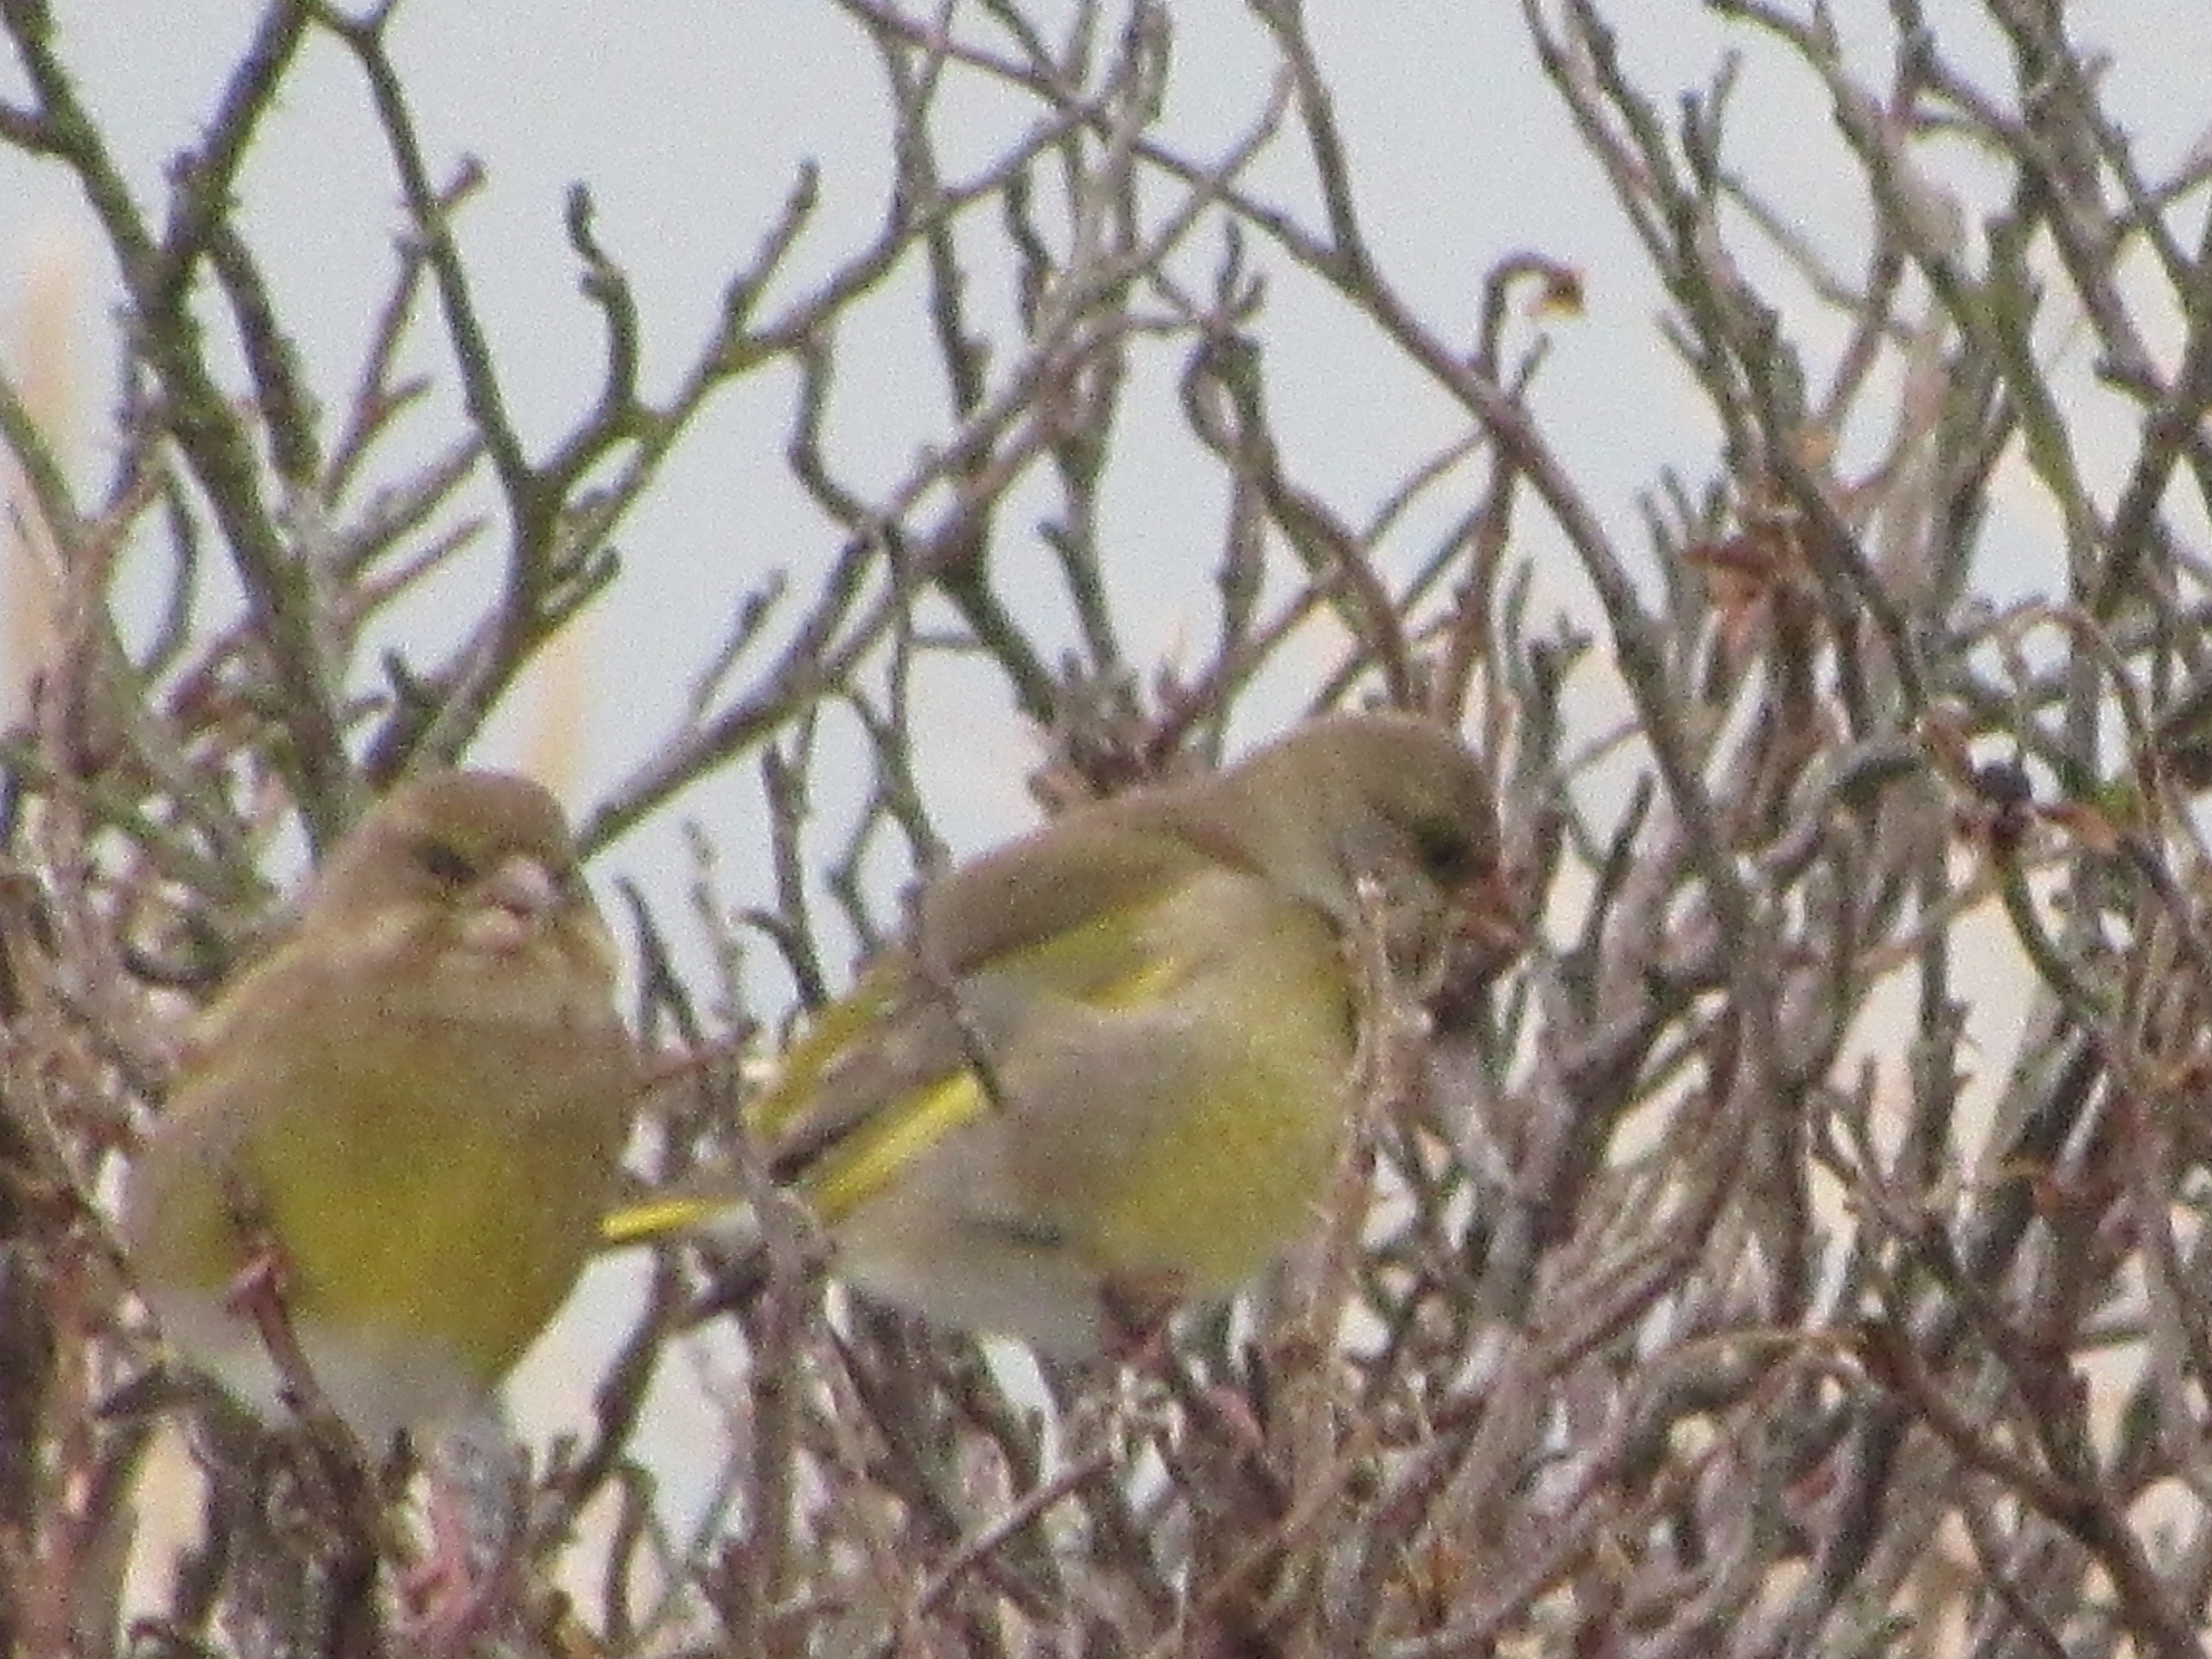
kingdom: Plantae
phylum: Tracheophyta
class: Liliopsida
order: Poales
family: Poaceae
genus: Chloris
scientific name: Chloris chloris
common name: Grønirisk
